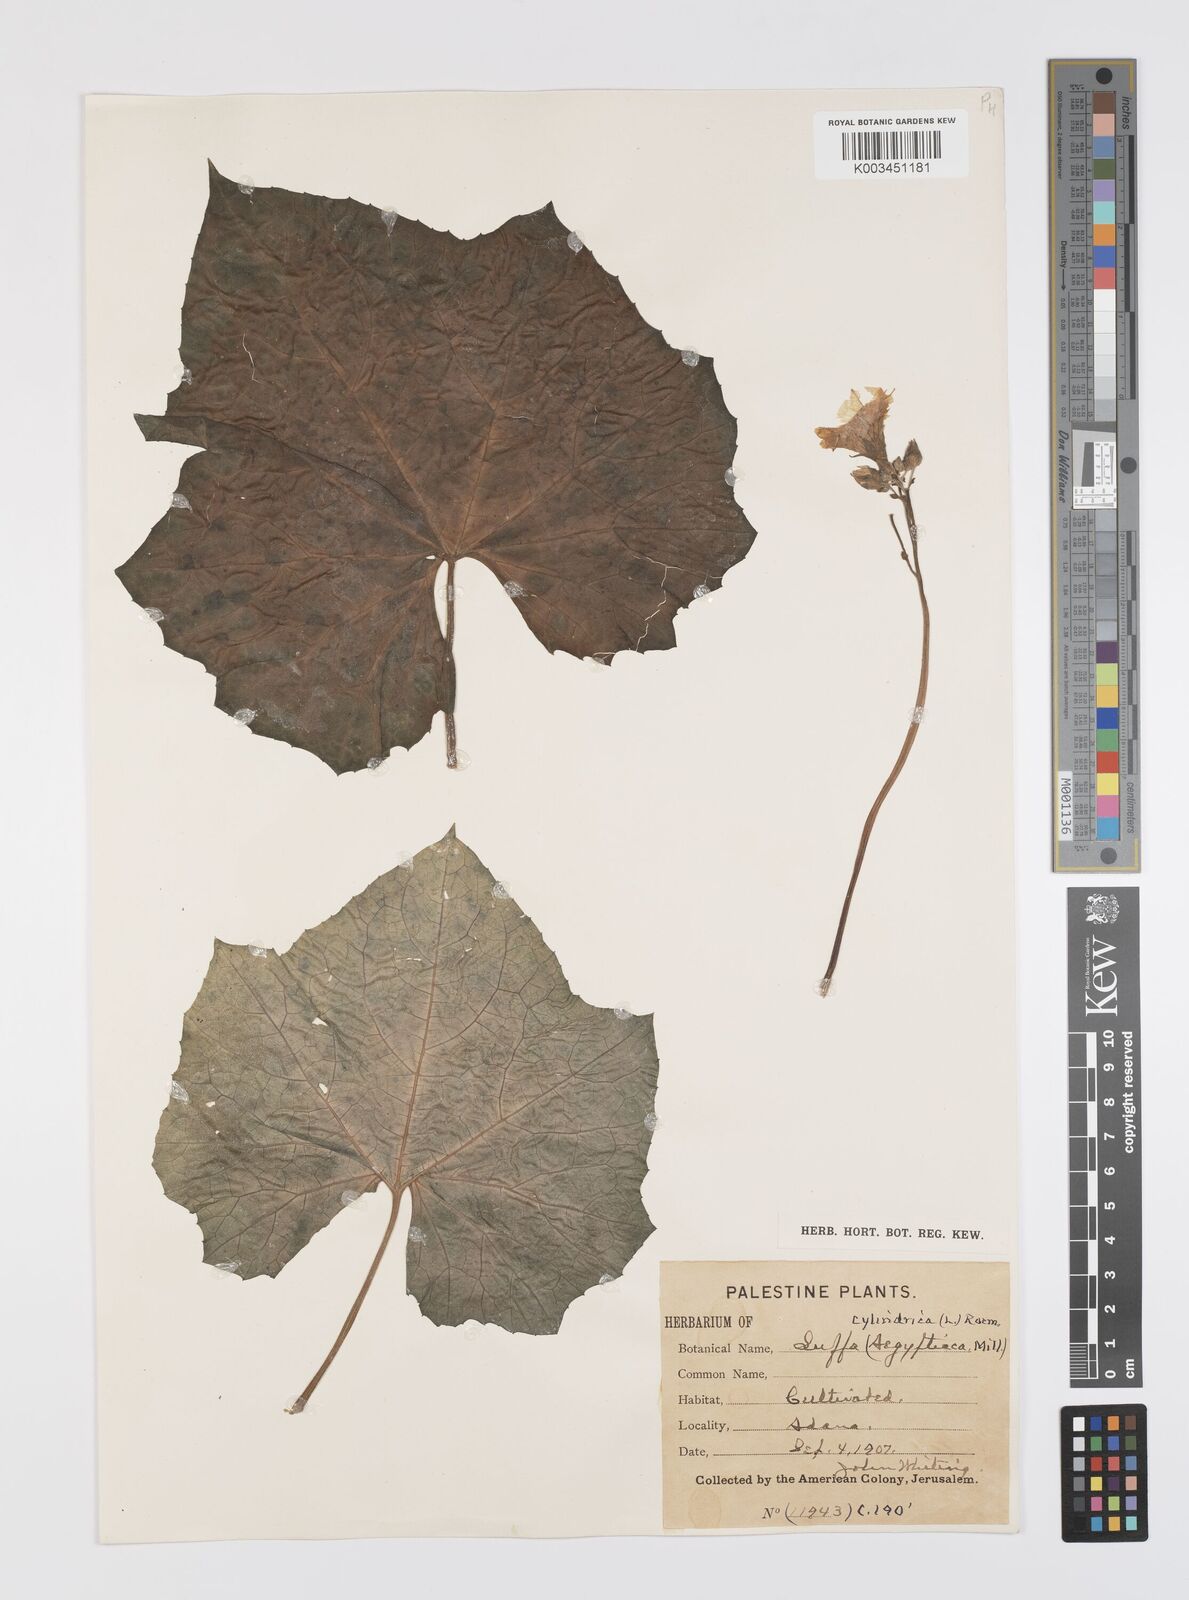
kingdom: Plantae
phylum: Tracheophyta
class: Magnoliopsida
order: Cucurbitales
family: Cucurbitaceae
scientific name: Cucurbitaceae
